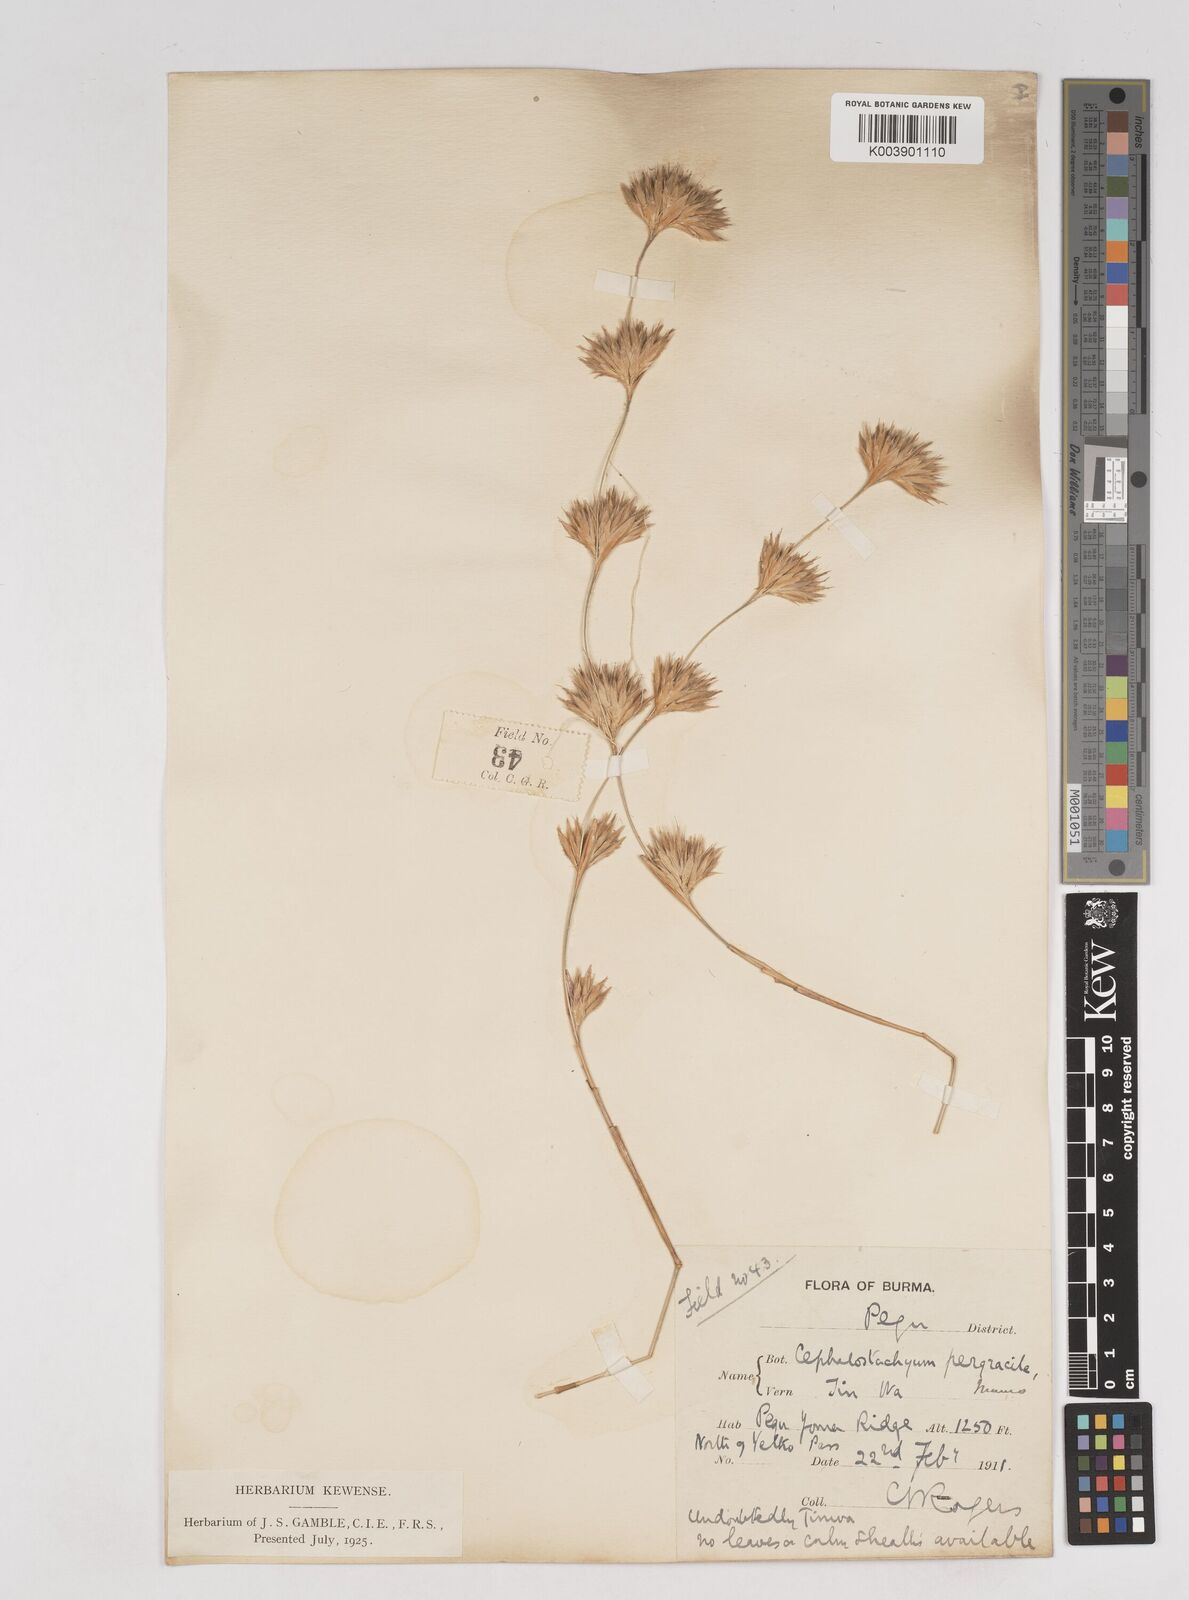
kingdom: Plantae
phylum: Tracheophyta
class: Liliopsida
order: Poales
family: Poaceae
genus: Schizostachyum
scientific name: Schizostachyum pergracile
